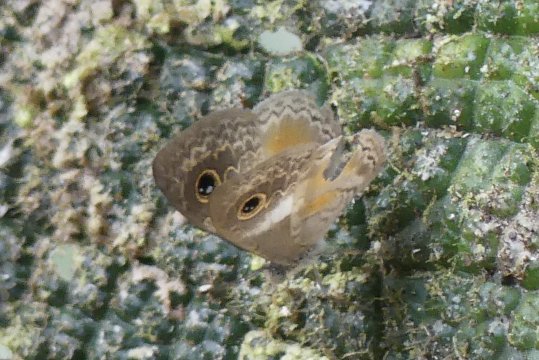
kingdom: Animalia
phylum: Arthropoda
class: Insecta
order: Lepidoptera
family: Riodinidae
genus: Perophthalma
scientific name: Perophthalma lasus
